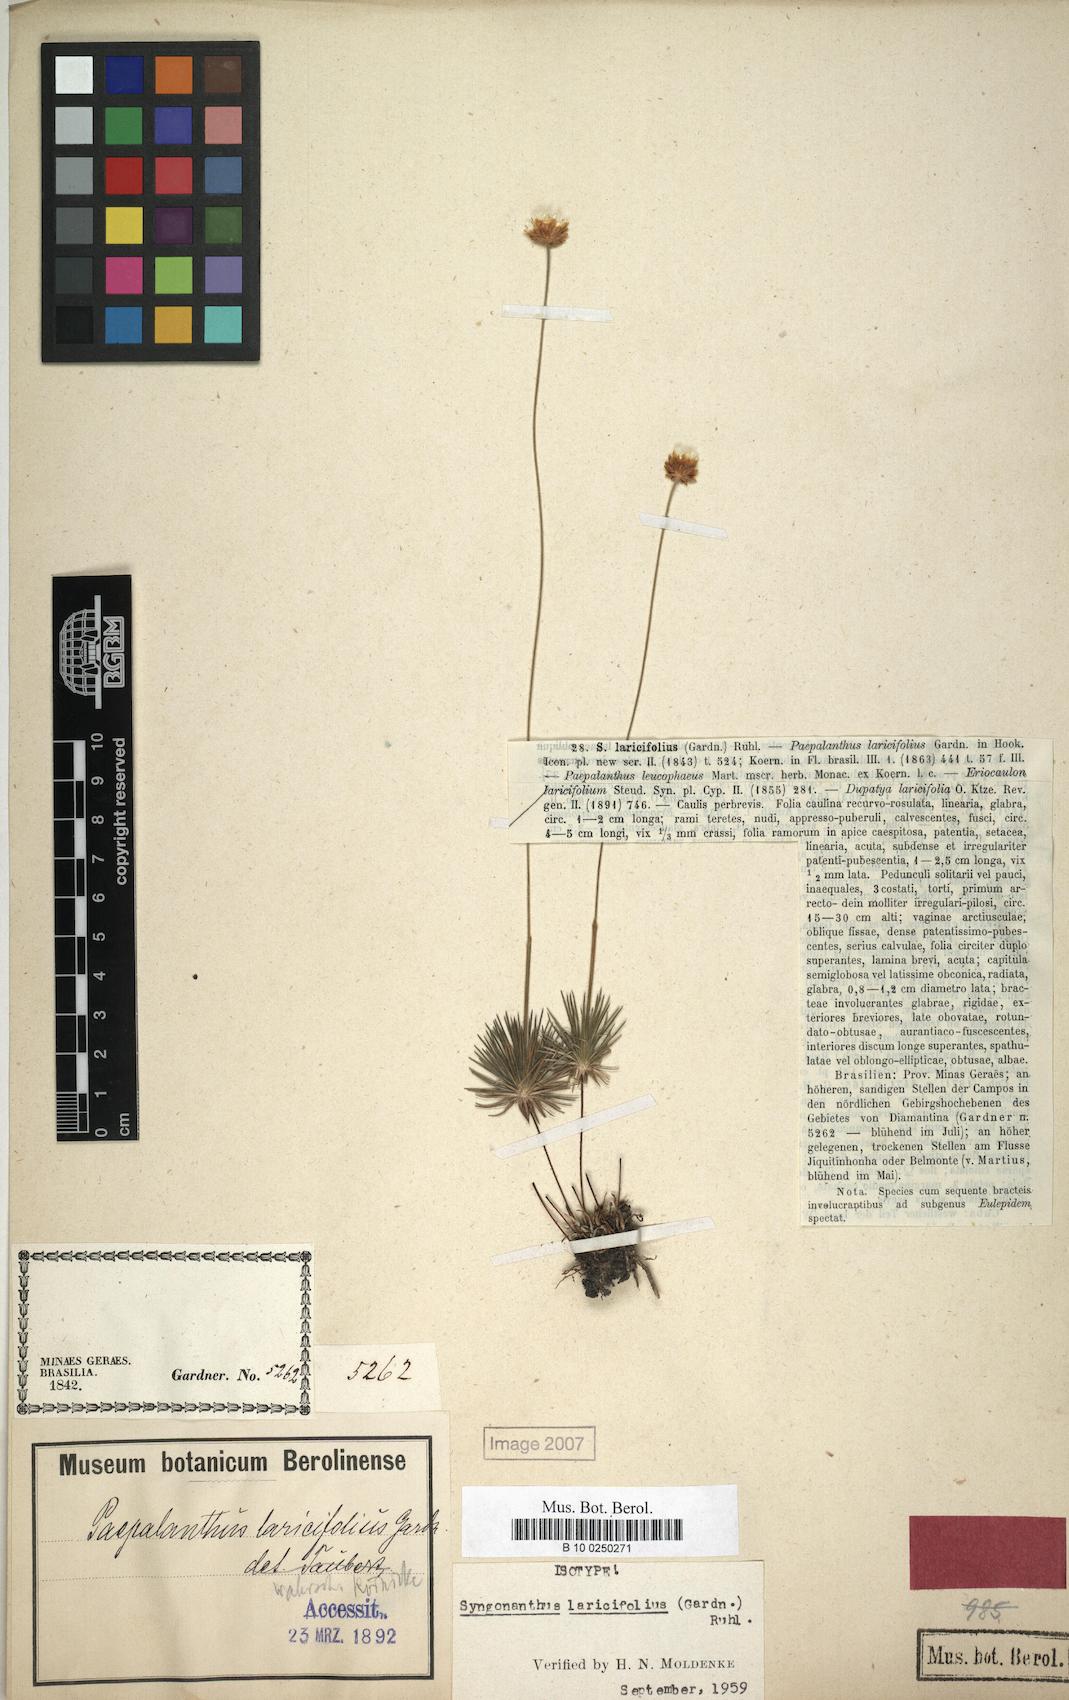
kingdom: Plantae
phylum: Tracheophyta
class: Liliopsida
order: Poales
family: Eriocaulaceae
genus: Syngonanthus
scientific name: Syngonanthus laricifolius
